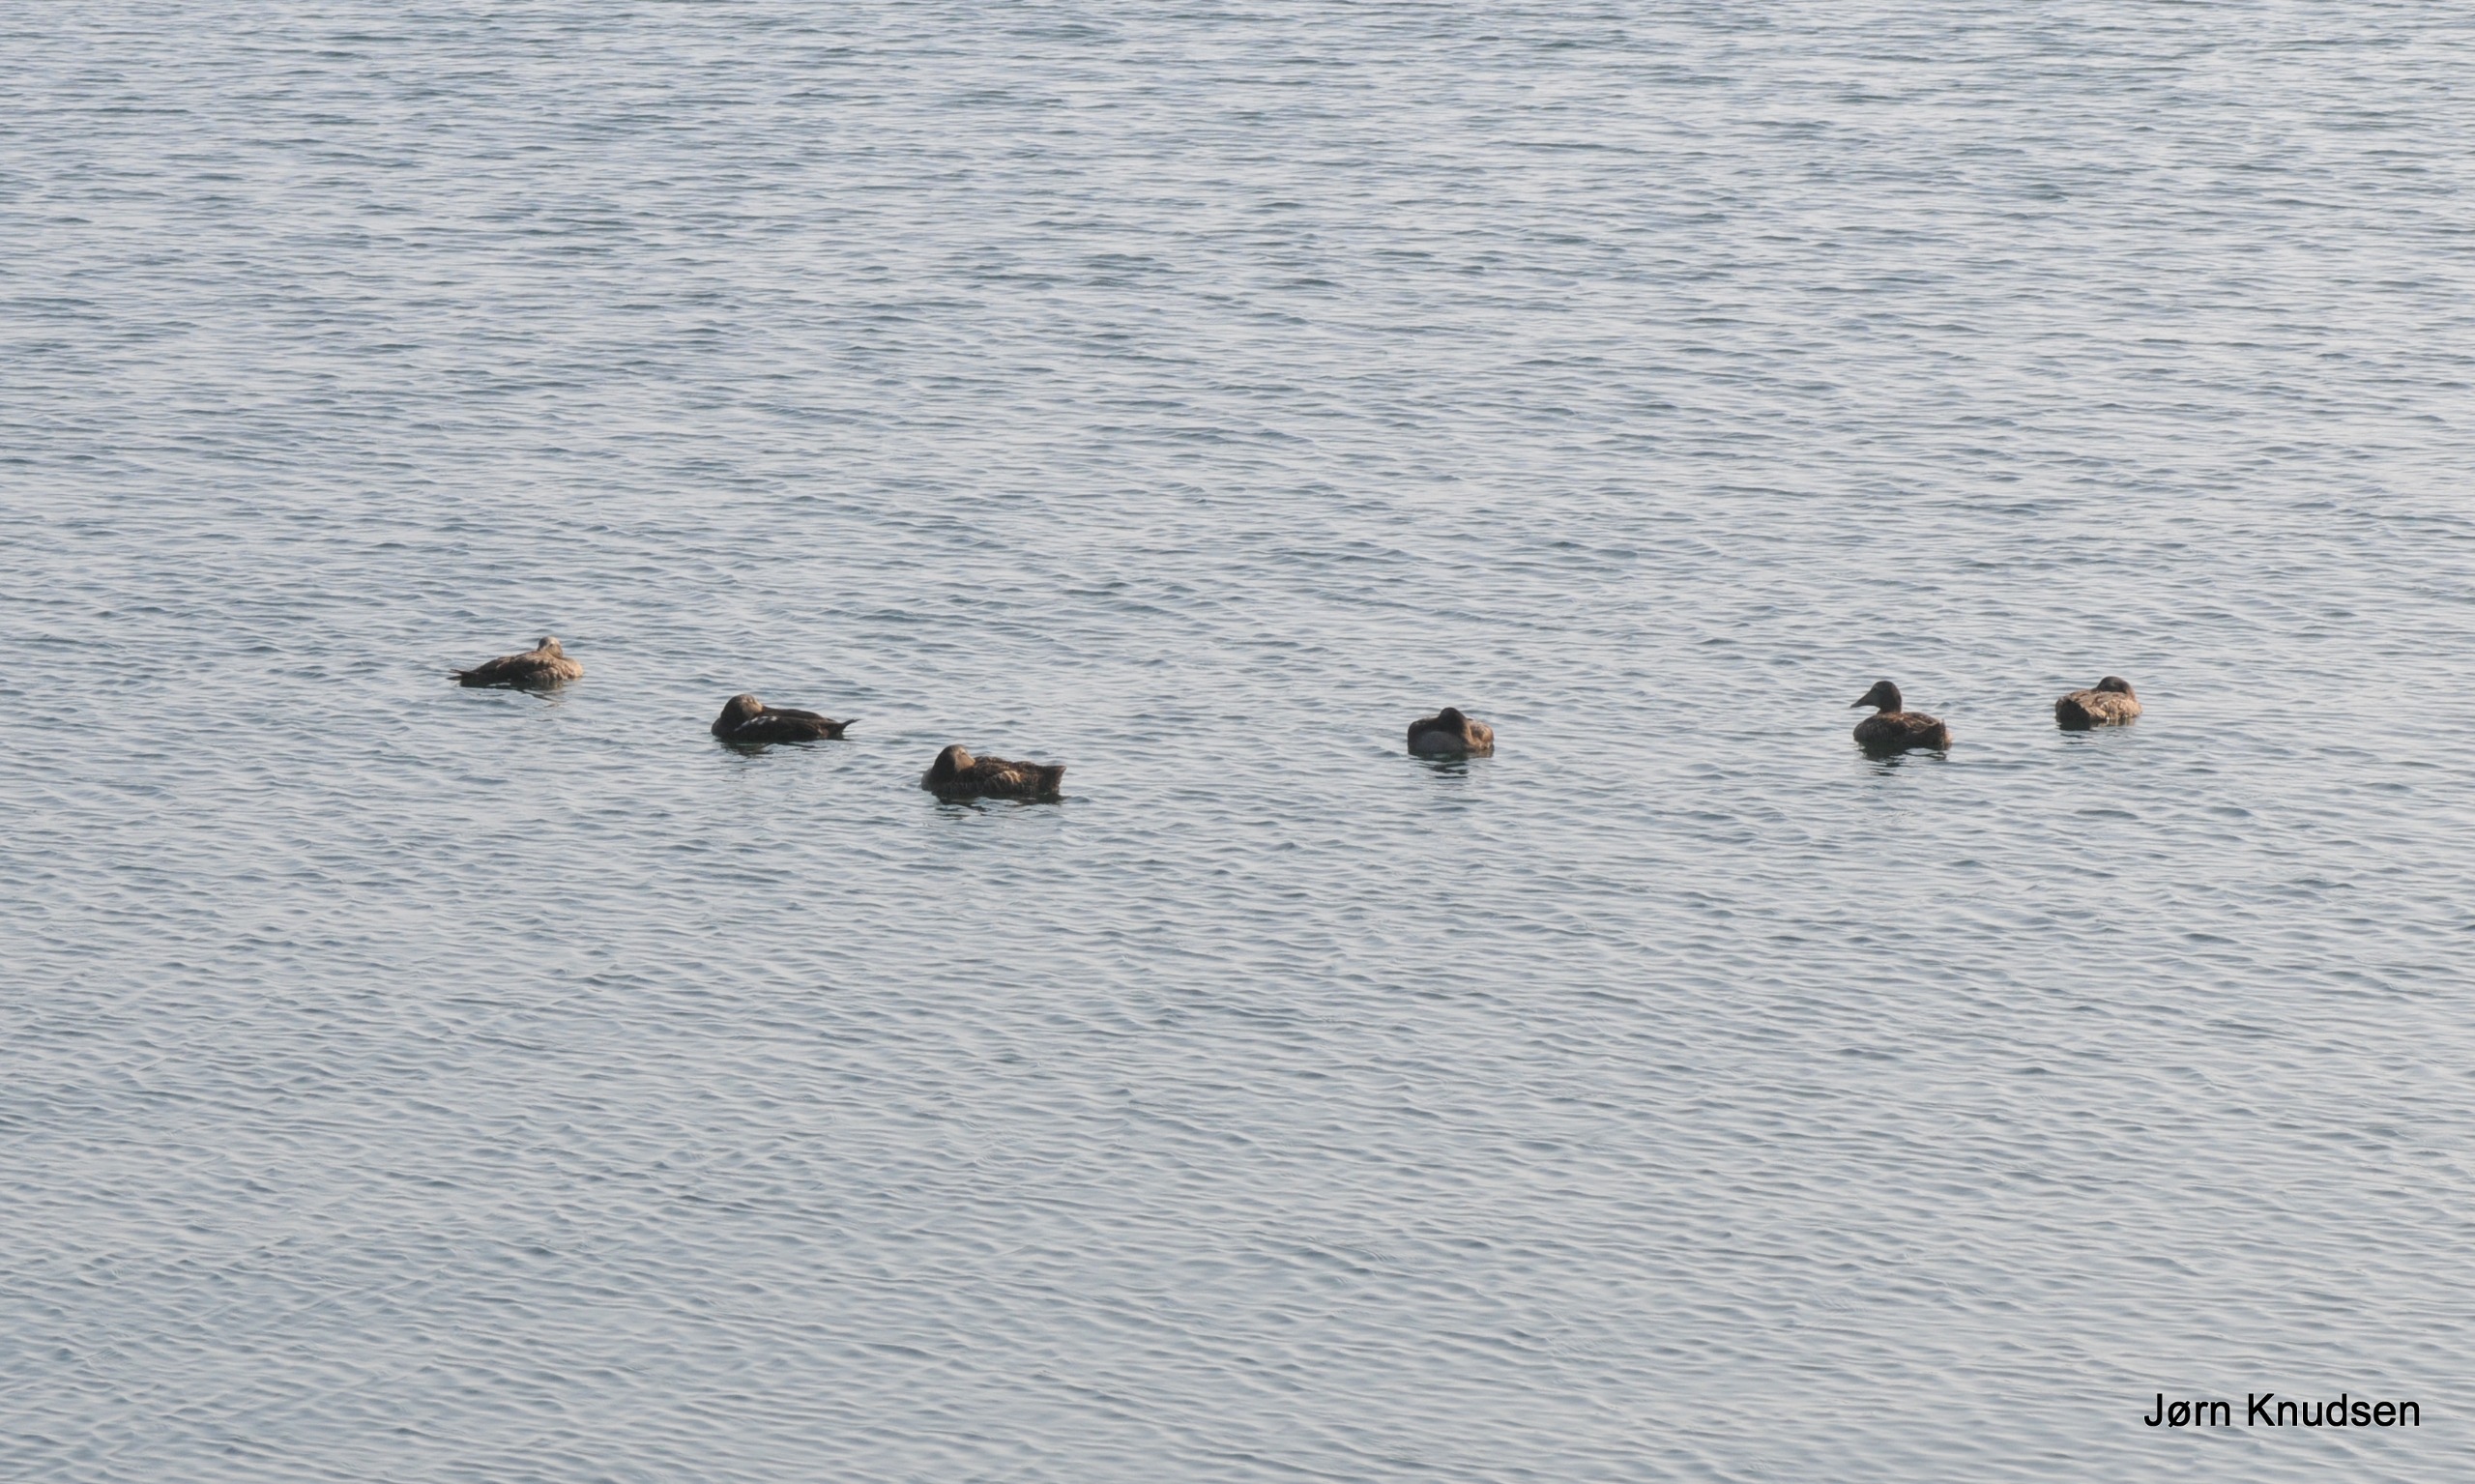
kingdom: Animalia
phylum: Chordata
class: Aves
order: Anseriformes
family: Anatidae
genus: Somateria
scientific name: Somateria mollissima
